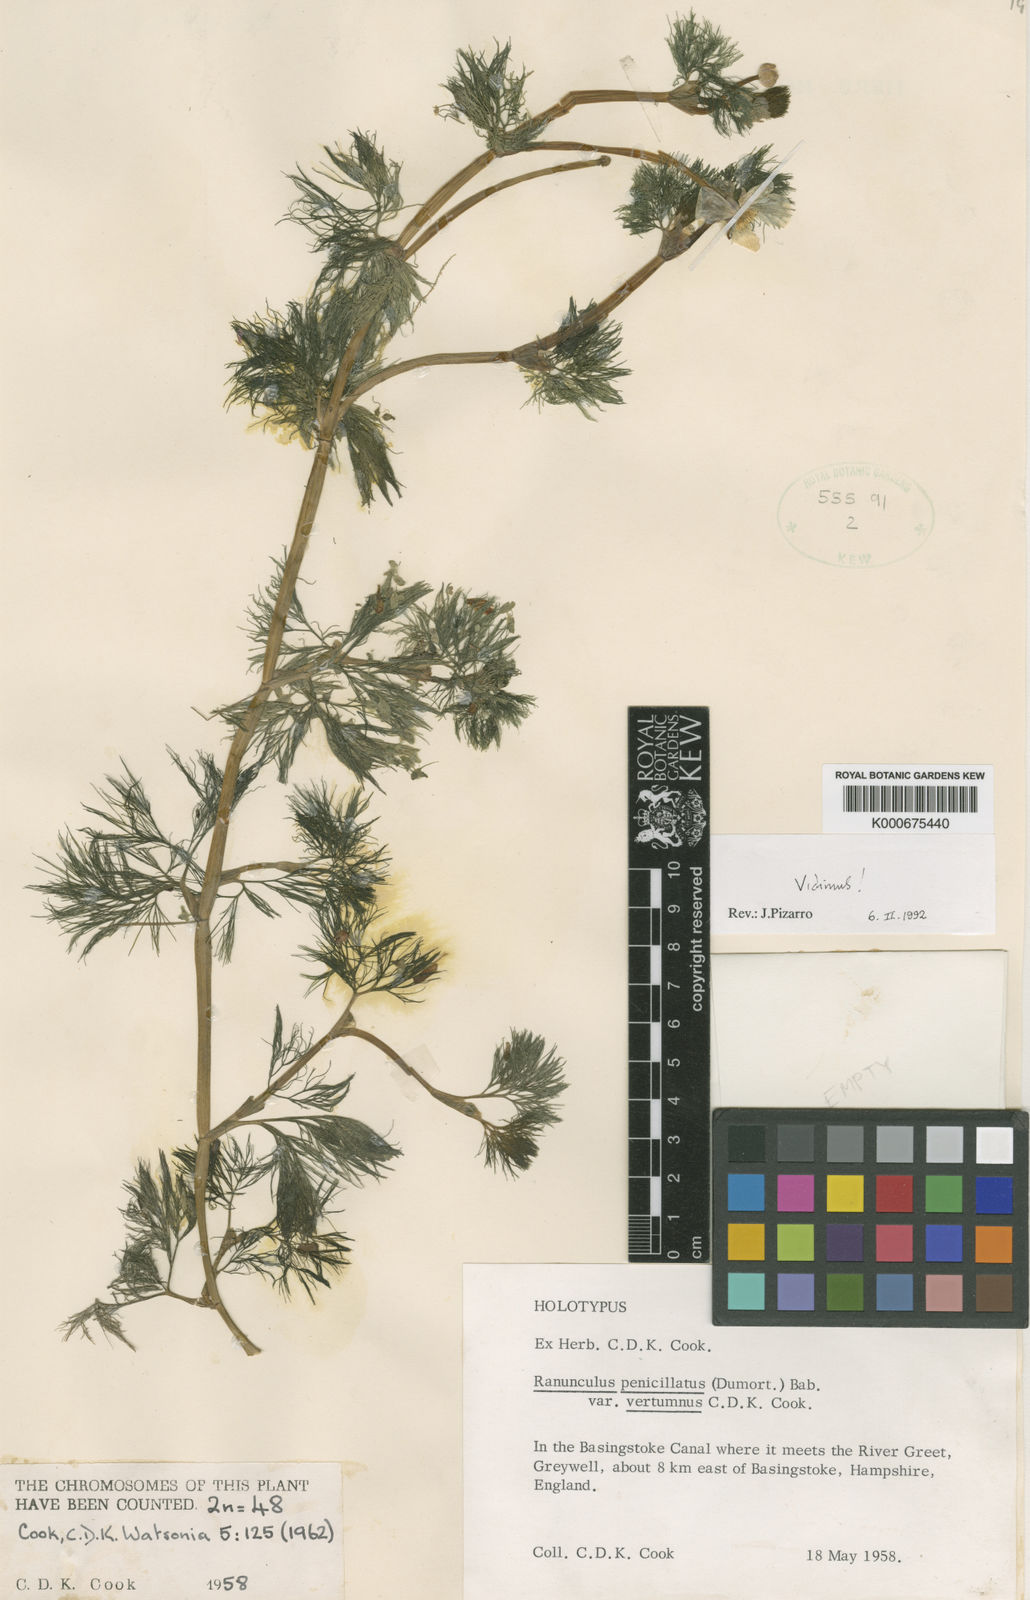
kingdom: Plantae
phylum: Tracheophyta
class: Magnoliopsida
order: Ranunculales
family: Ranunculaceae
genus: Ranunculus
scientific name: Ranunculus penicillatus
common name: Stream water-crowfoot
